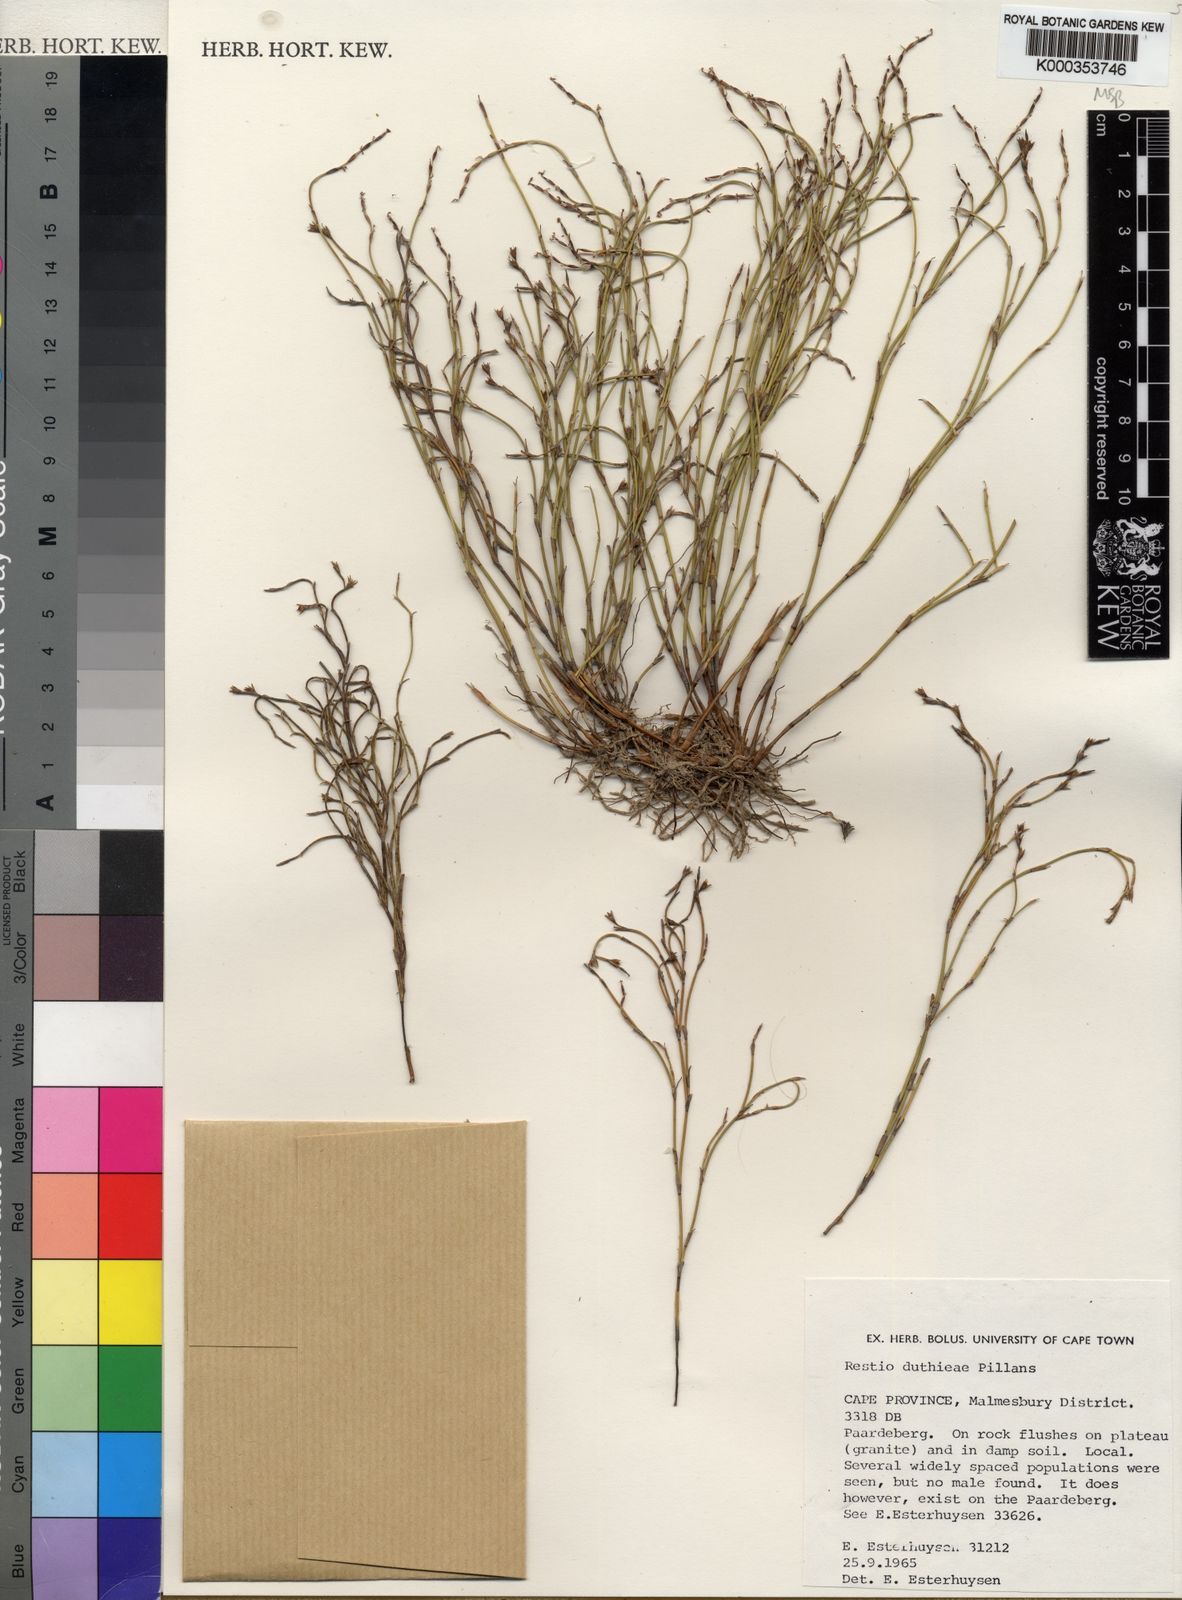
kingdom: Plantae
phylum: Tracheophyta
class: Liliopsida
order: Poales
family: Restionaceae
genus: Restio
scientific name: Restio duthieae
